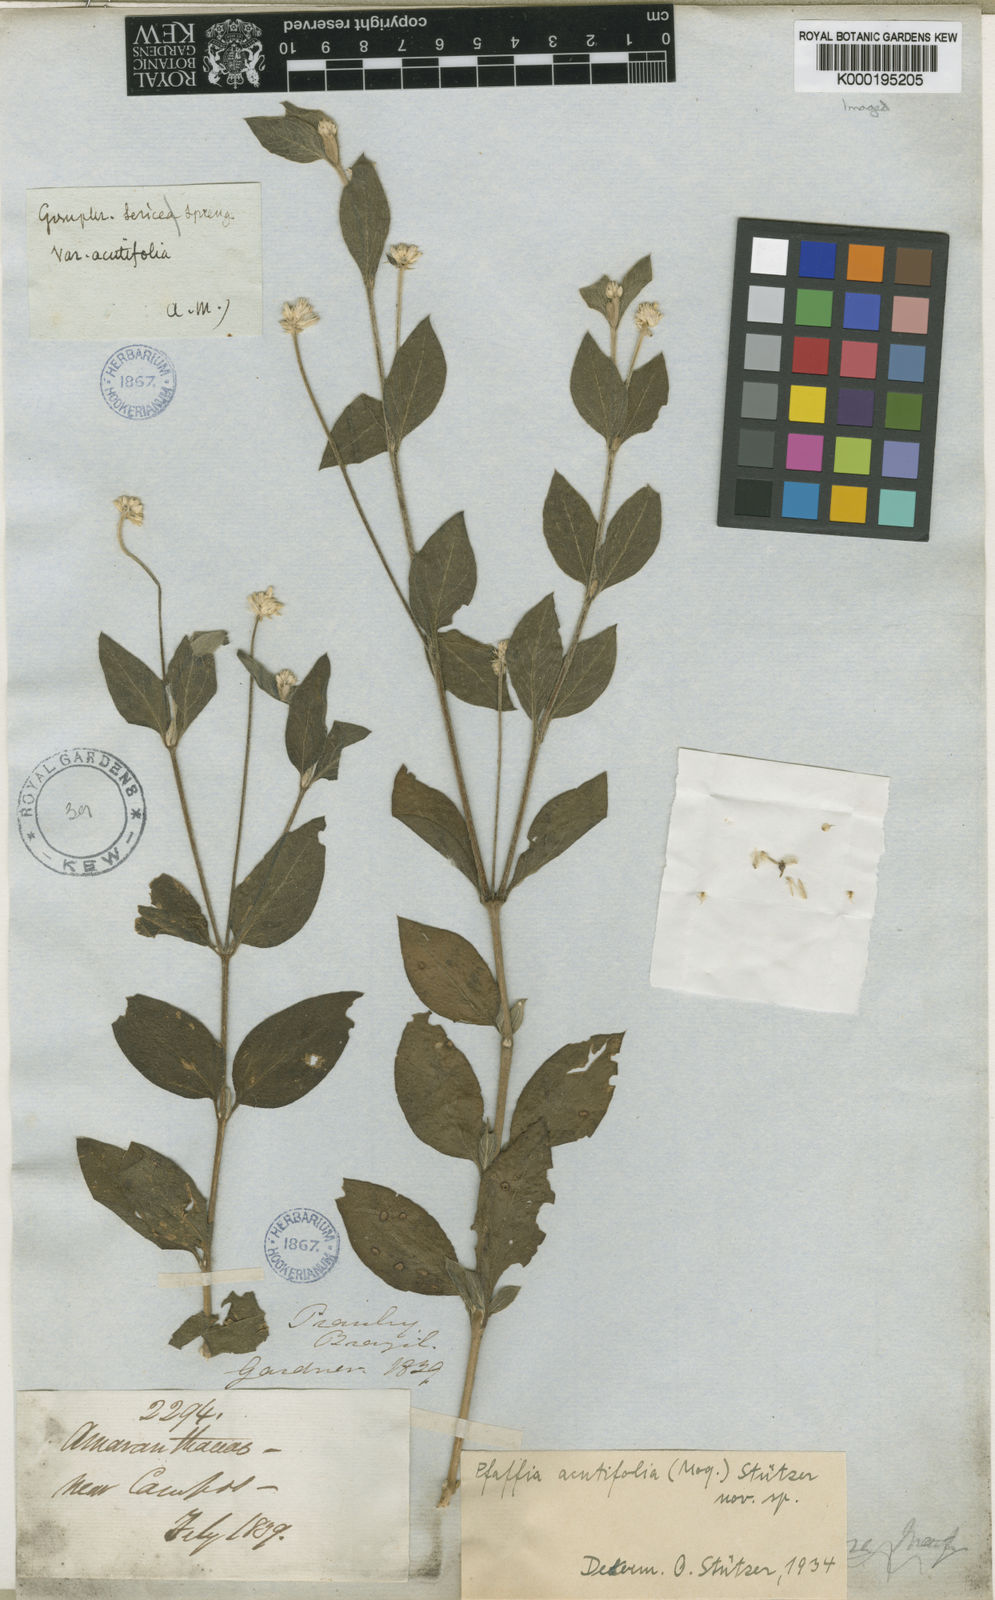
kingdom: Plantae
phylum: Tracheophyta
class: Magnoliopsida
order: Caryophyllales
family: Amaranthaceae
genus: Pfaffia
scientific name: Pfaffia acutifolia
